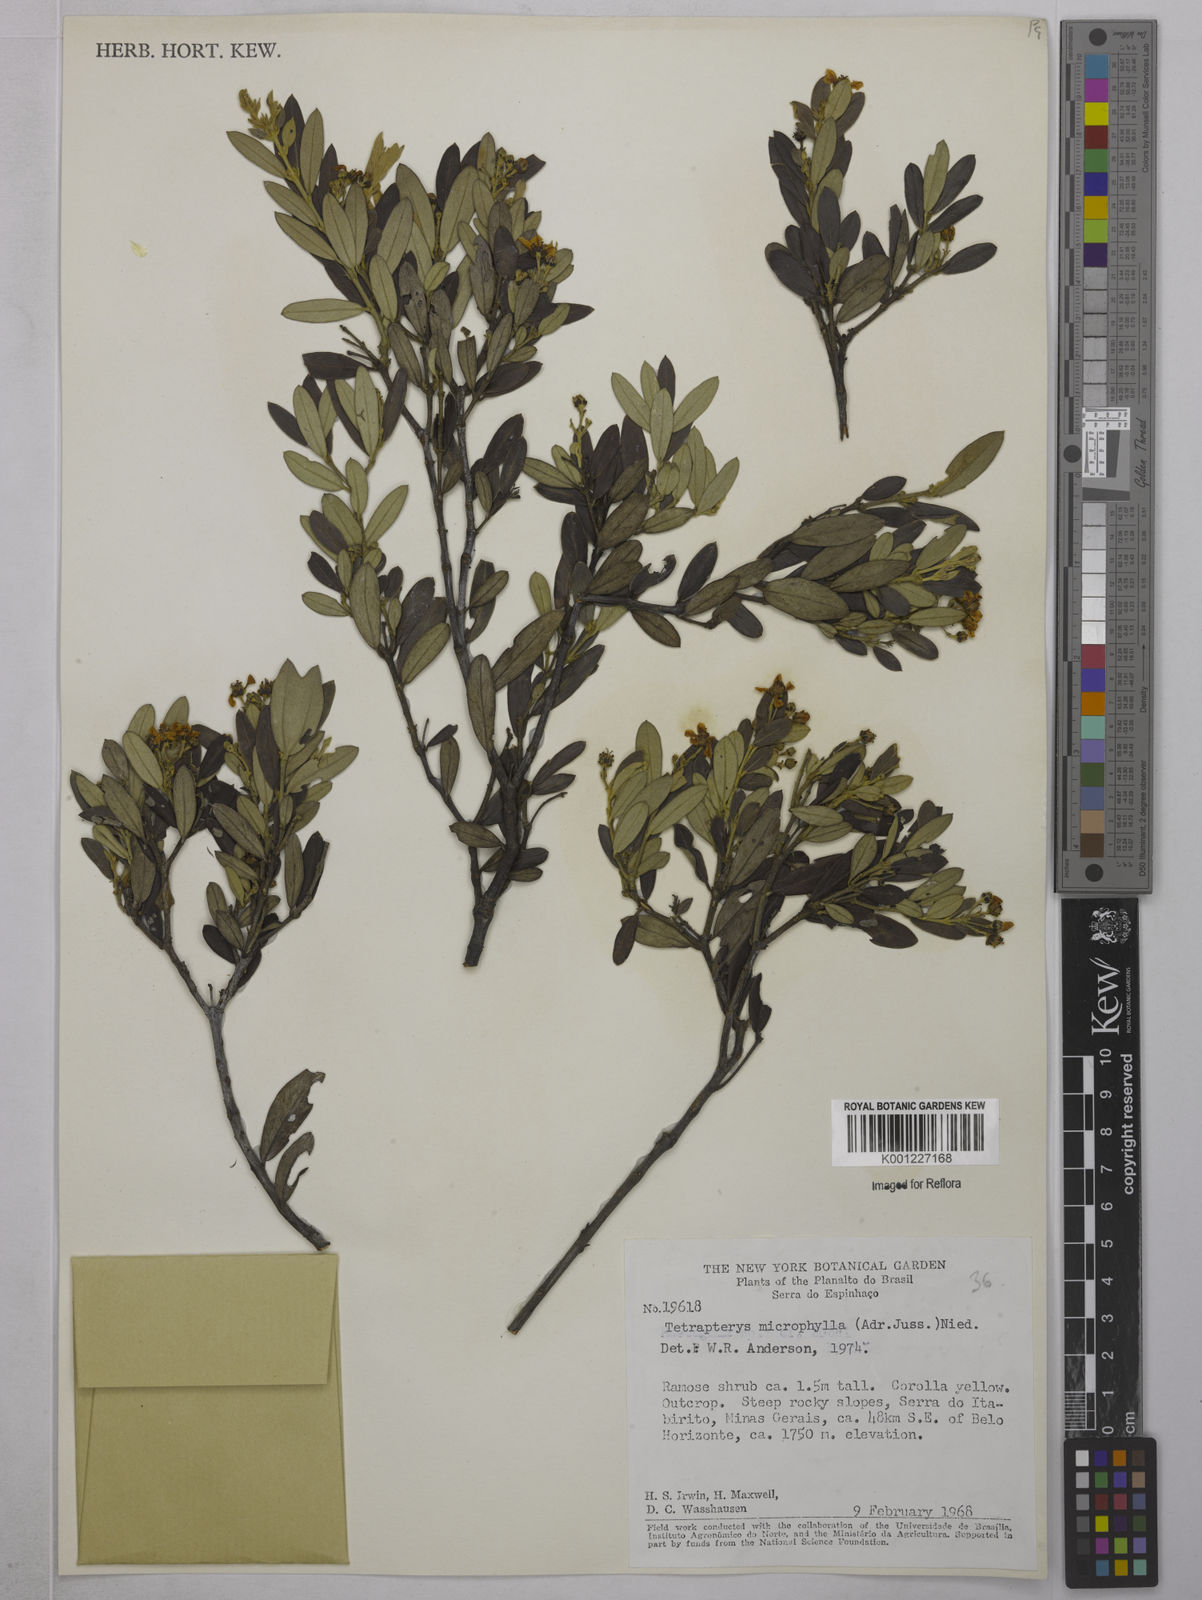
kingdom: Plantae
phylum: Tracheophyta
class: Magnoliopsida
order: Malpighiales
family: Malpighiaceae
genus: Glicophyllum
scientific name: Glicophyllum microphyllum
